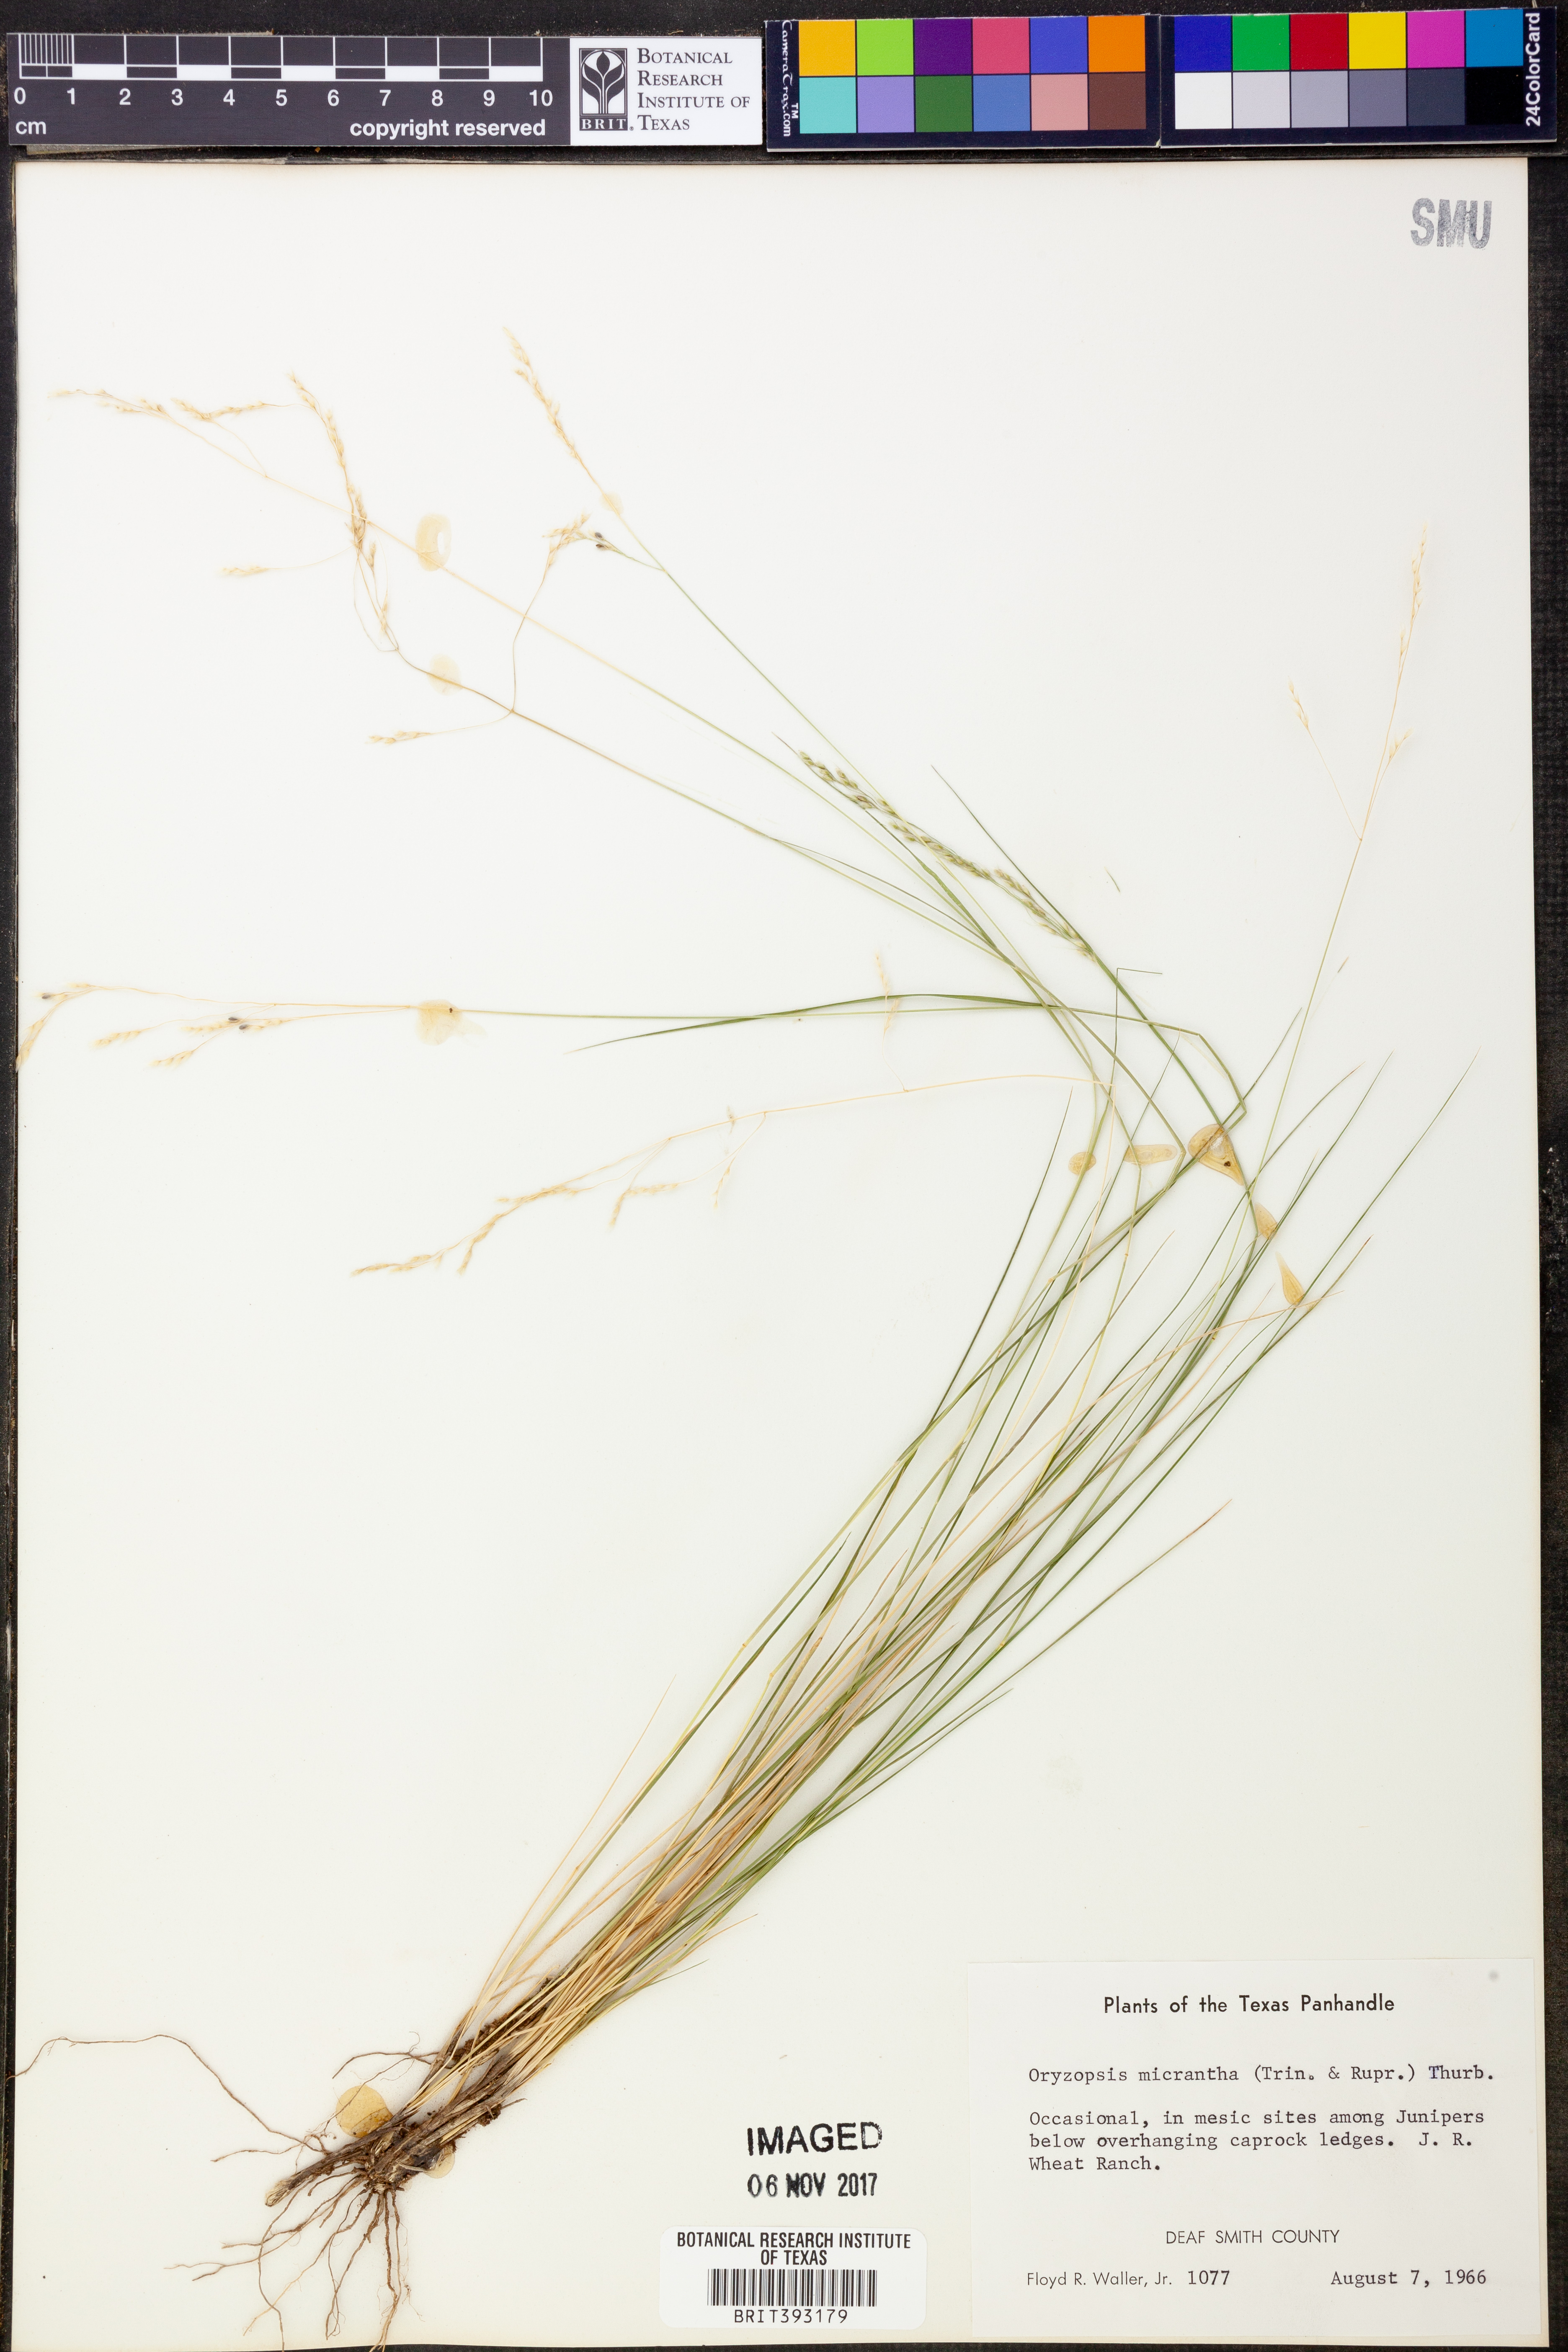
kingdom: Plantae
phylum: Tracheophyta
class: Liliopsida
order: Poales
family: Poaceae
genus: Piptatheropsis
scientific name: Piptatheropsis micrantha
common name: Little-seed mountain ricegrass
